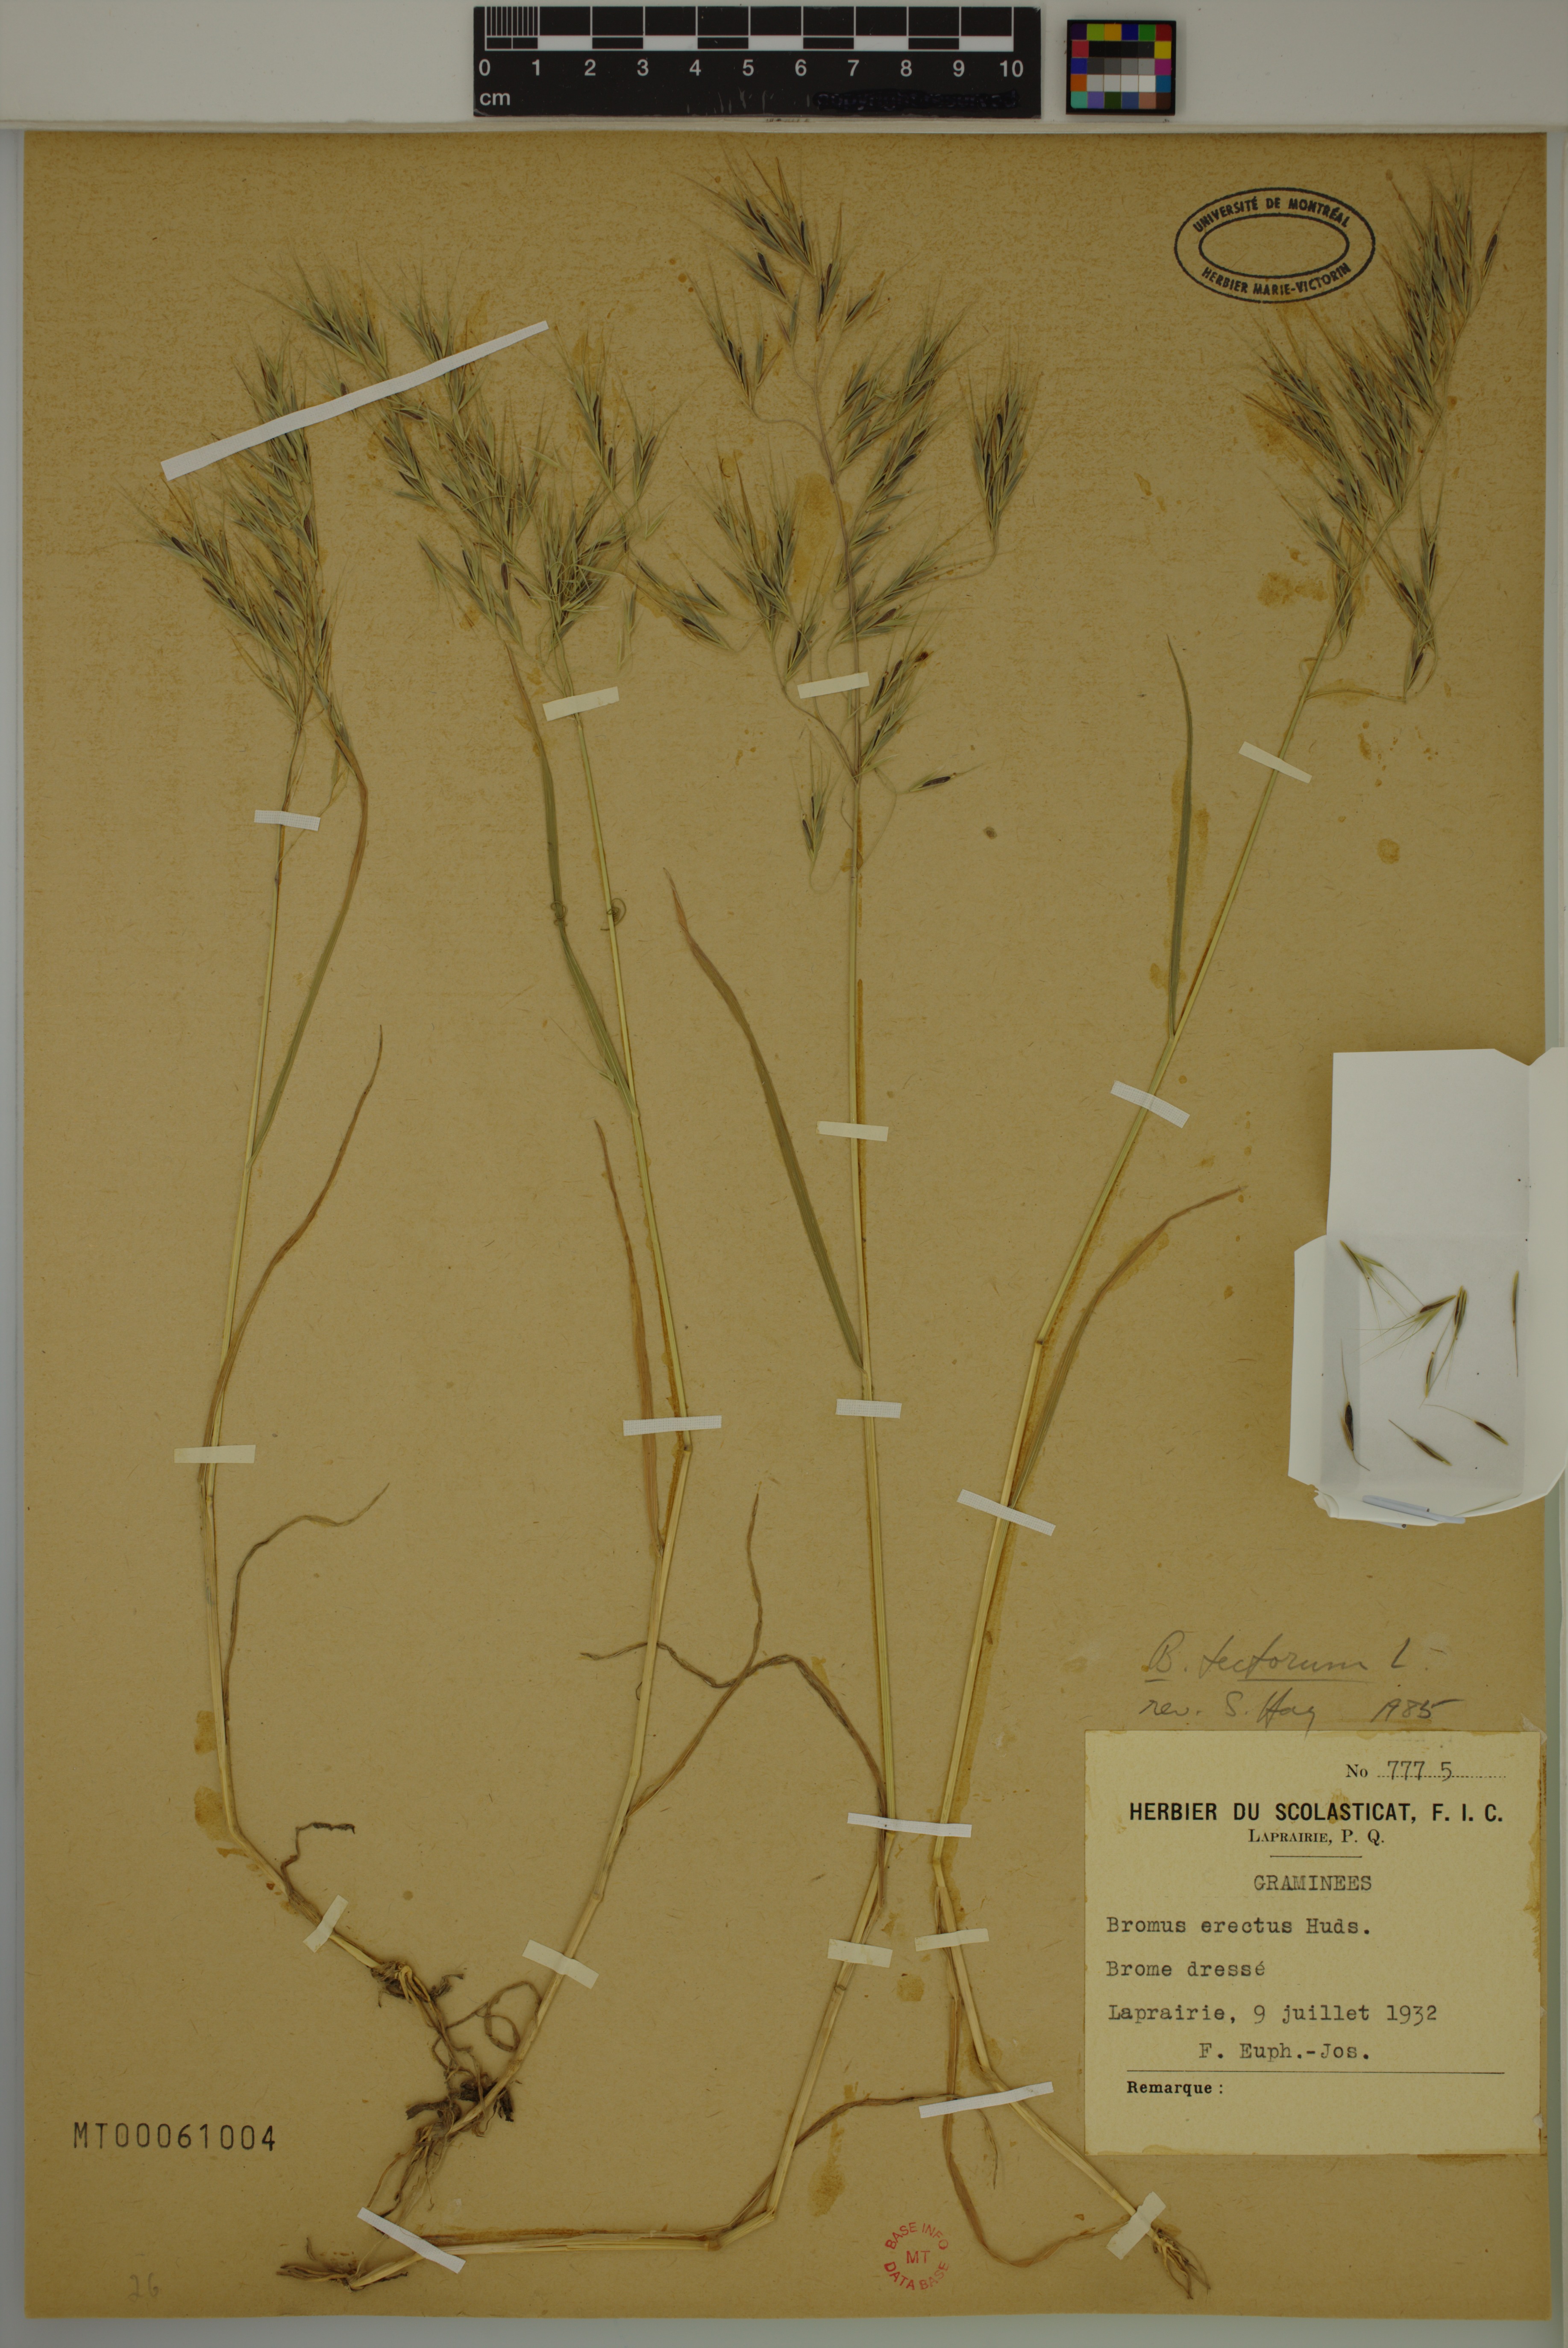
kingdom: Plantae
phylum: Tracheophyta
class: Liliopsida
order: Poales
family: Poaceae
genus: Bromus
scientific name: Bromus tectorum
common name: Cheatgrass
